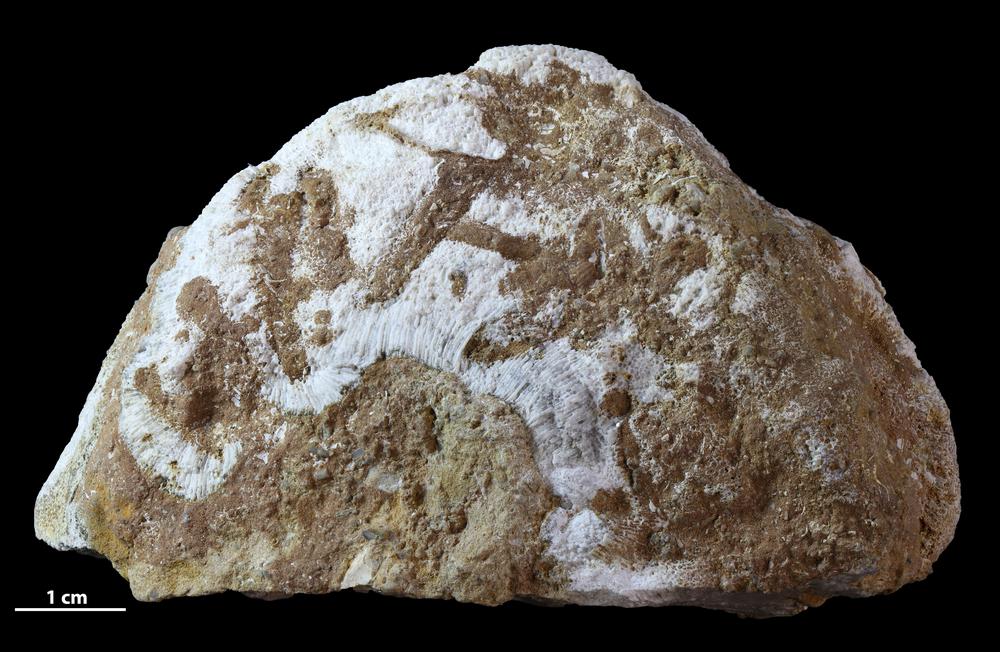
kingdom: Animalia
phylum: Bryozoa
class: Stenolaemata
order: Trepostomatida
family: Diplotrypidae
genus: Diplotrypa
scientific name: Diplotrypa petropolitana
